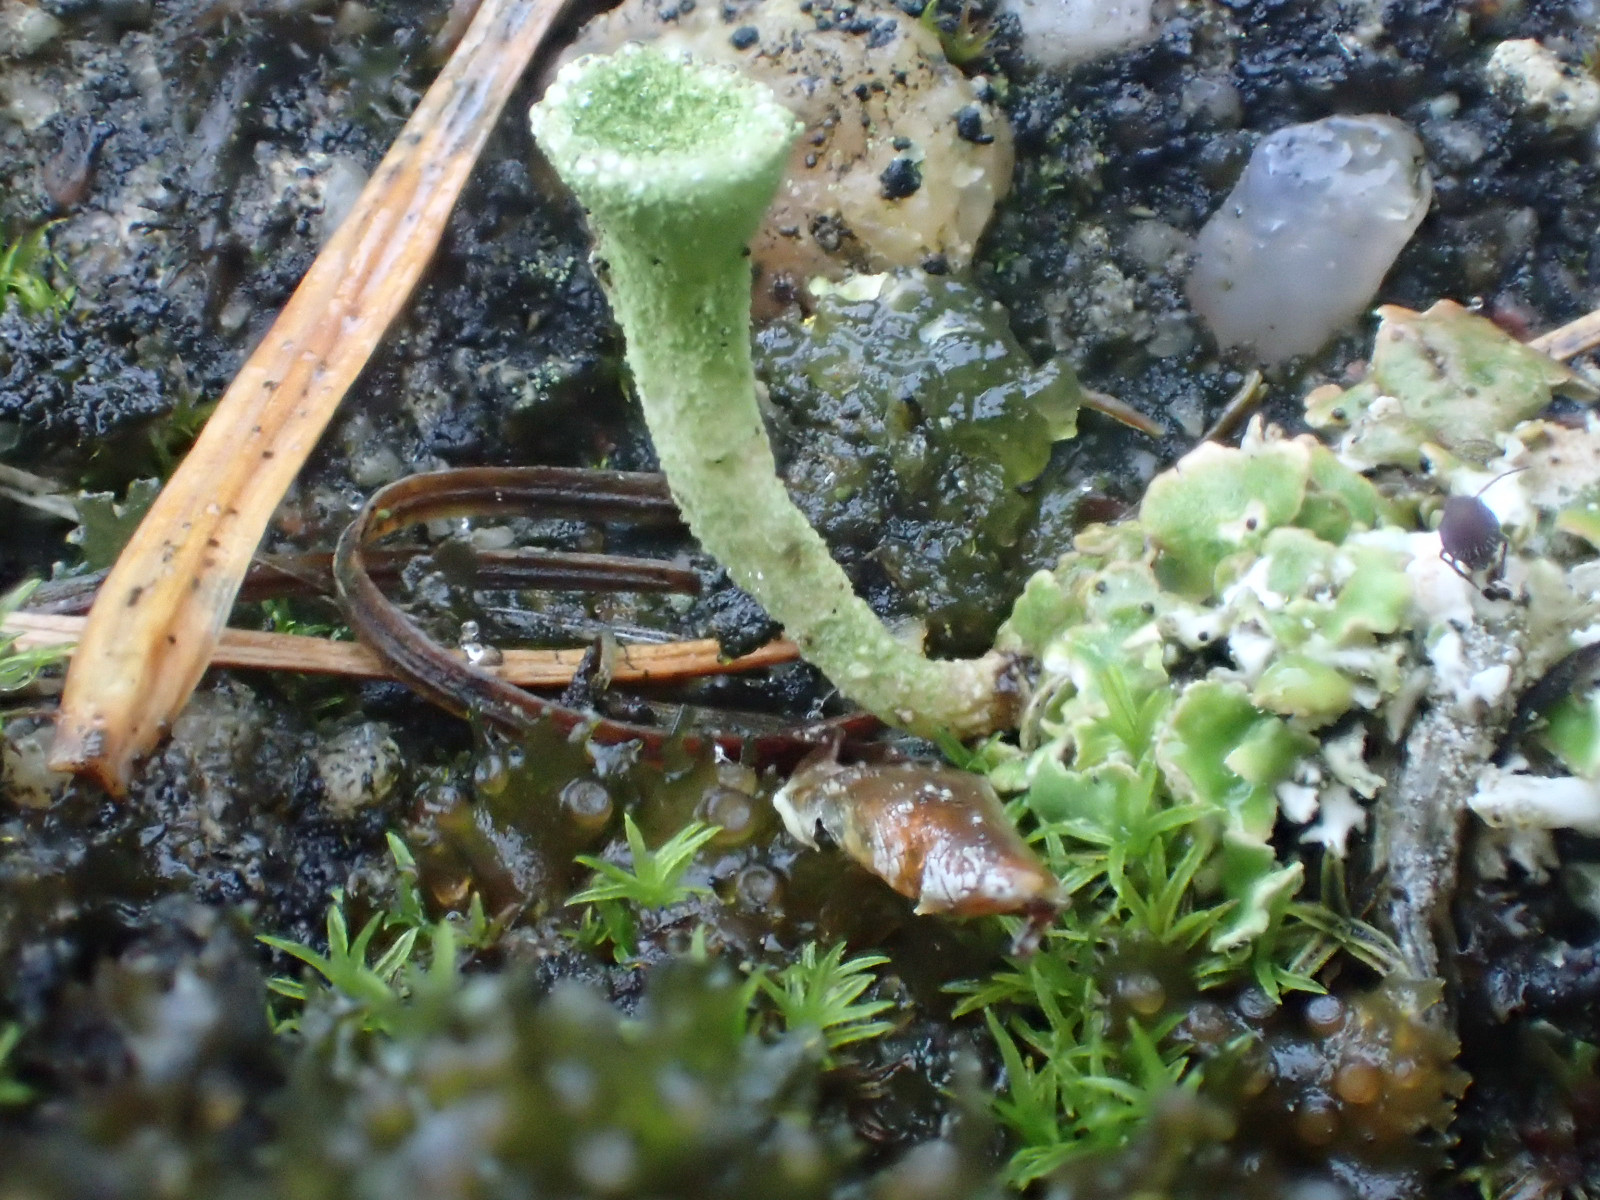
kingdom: Fungi
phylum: Ascomycota
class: Lecanoromycetes
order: Lecanorales
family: Cladoniaceae
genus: Cladonia
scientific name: Cladonia fimbriata
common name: bleggrøn bægerlav
